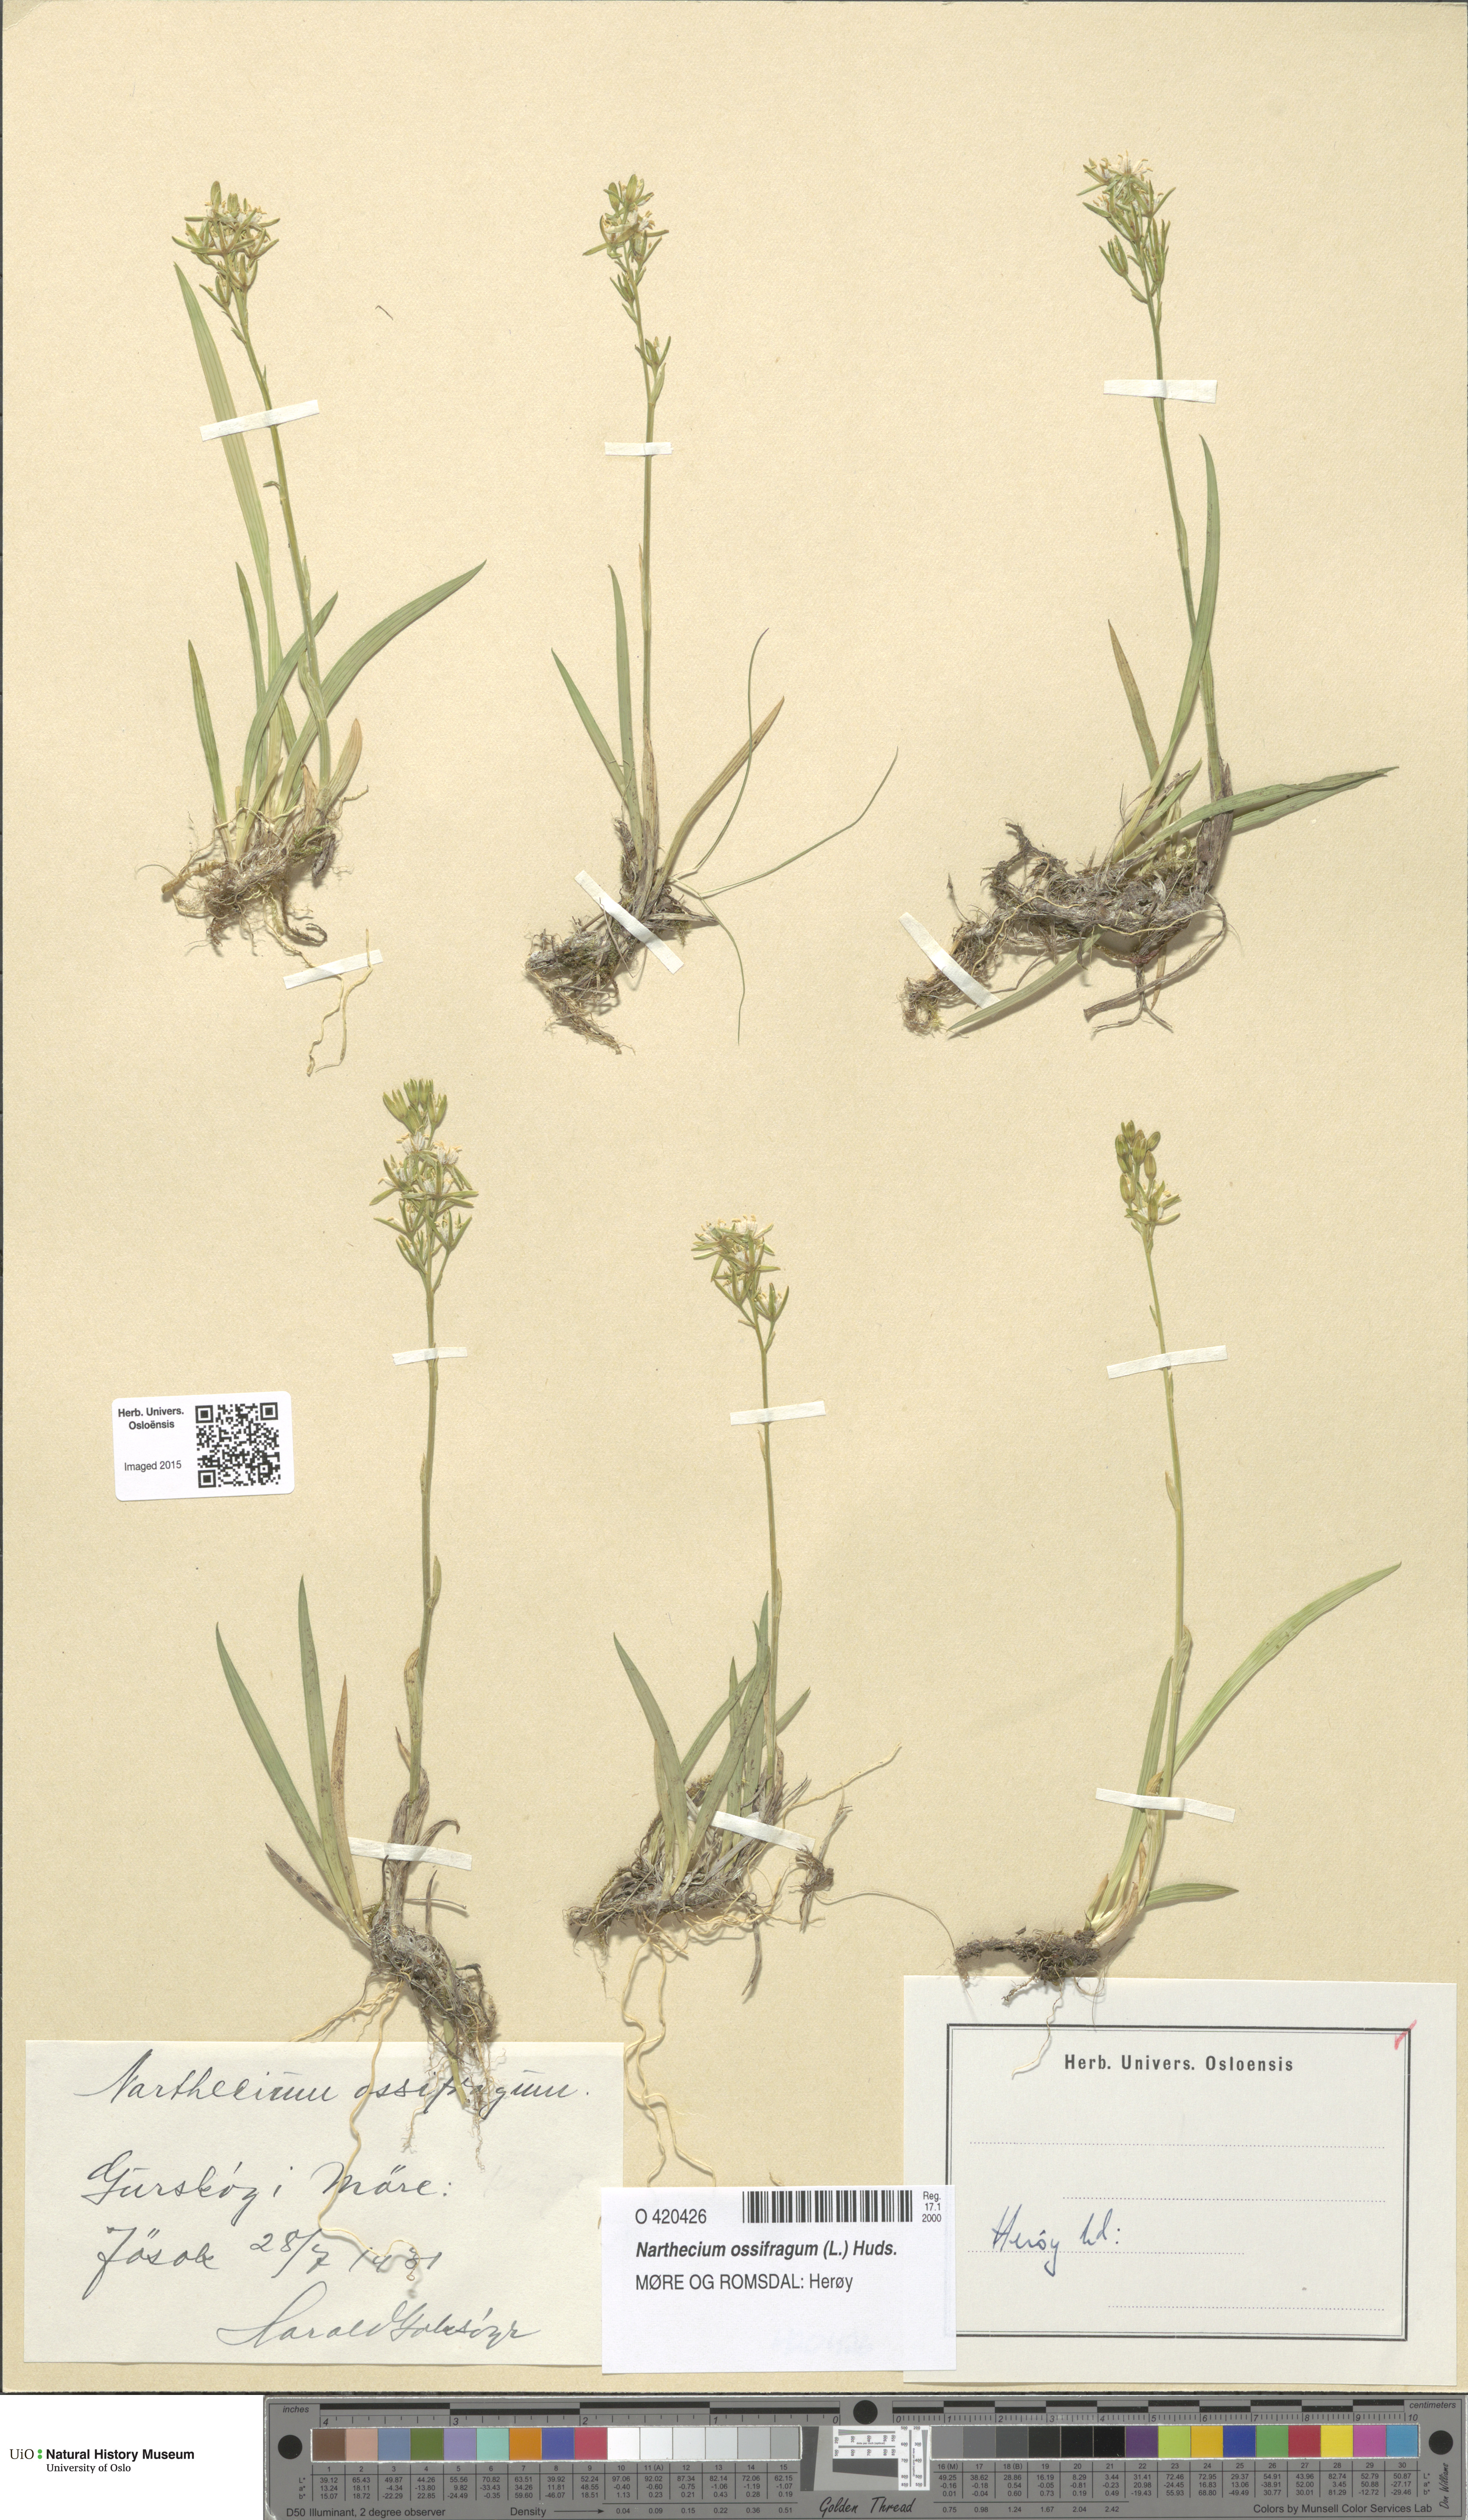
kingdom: Plantae
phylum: Tracheophyta
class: Liliopsida
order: Dioscoreales
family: Nartheciaceae
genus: Narthecium
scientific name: Narthecium ossifragum
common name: Bog asphodel
